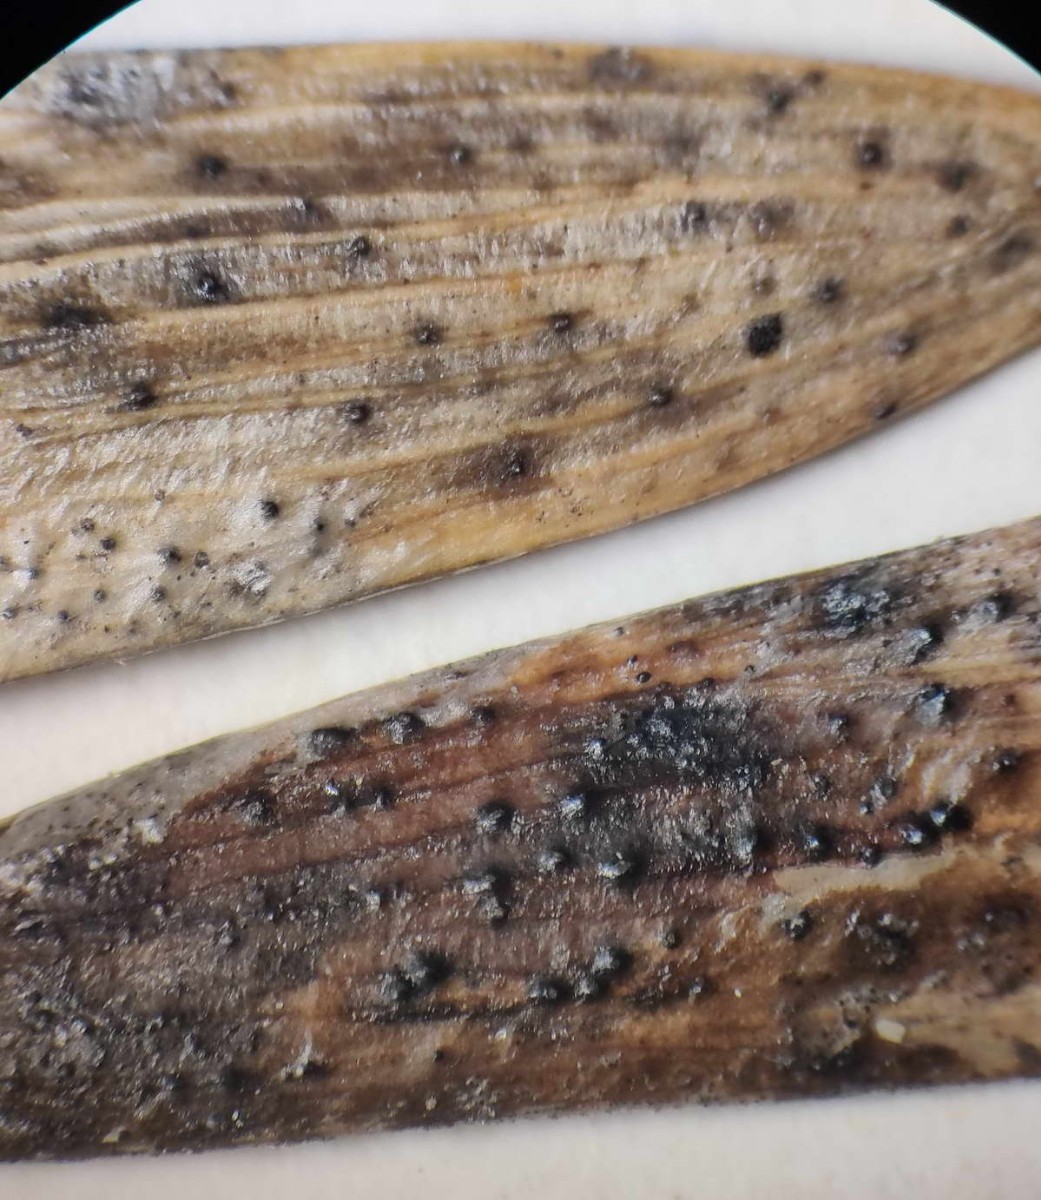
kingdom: Fungi
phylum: Ascomycota
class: Sordariomycetes
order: Diaporthales
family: Diaporthaceae
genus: Diaporthe
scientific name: Diaporthe samaricola
